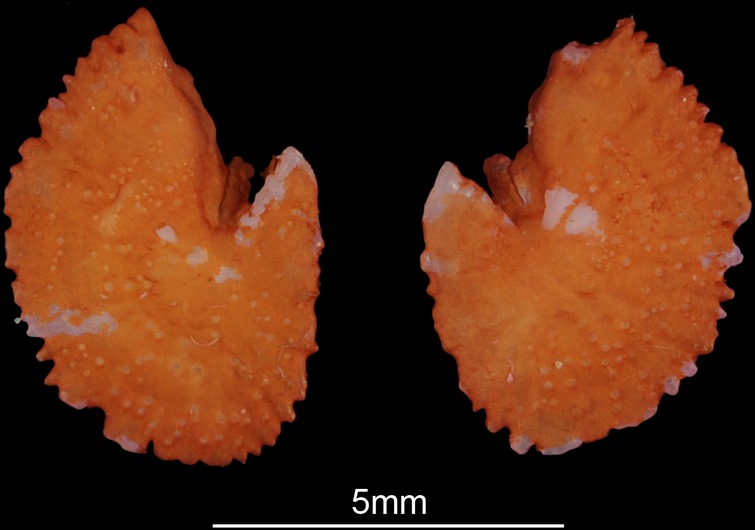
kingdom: Animalia
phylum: Chordata
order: Cypriniformes
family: Cyprinidae
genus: Cyprinus
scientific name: Cyprinus carpio
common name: Common carp
